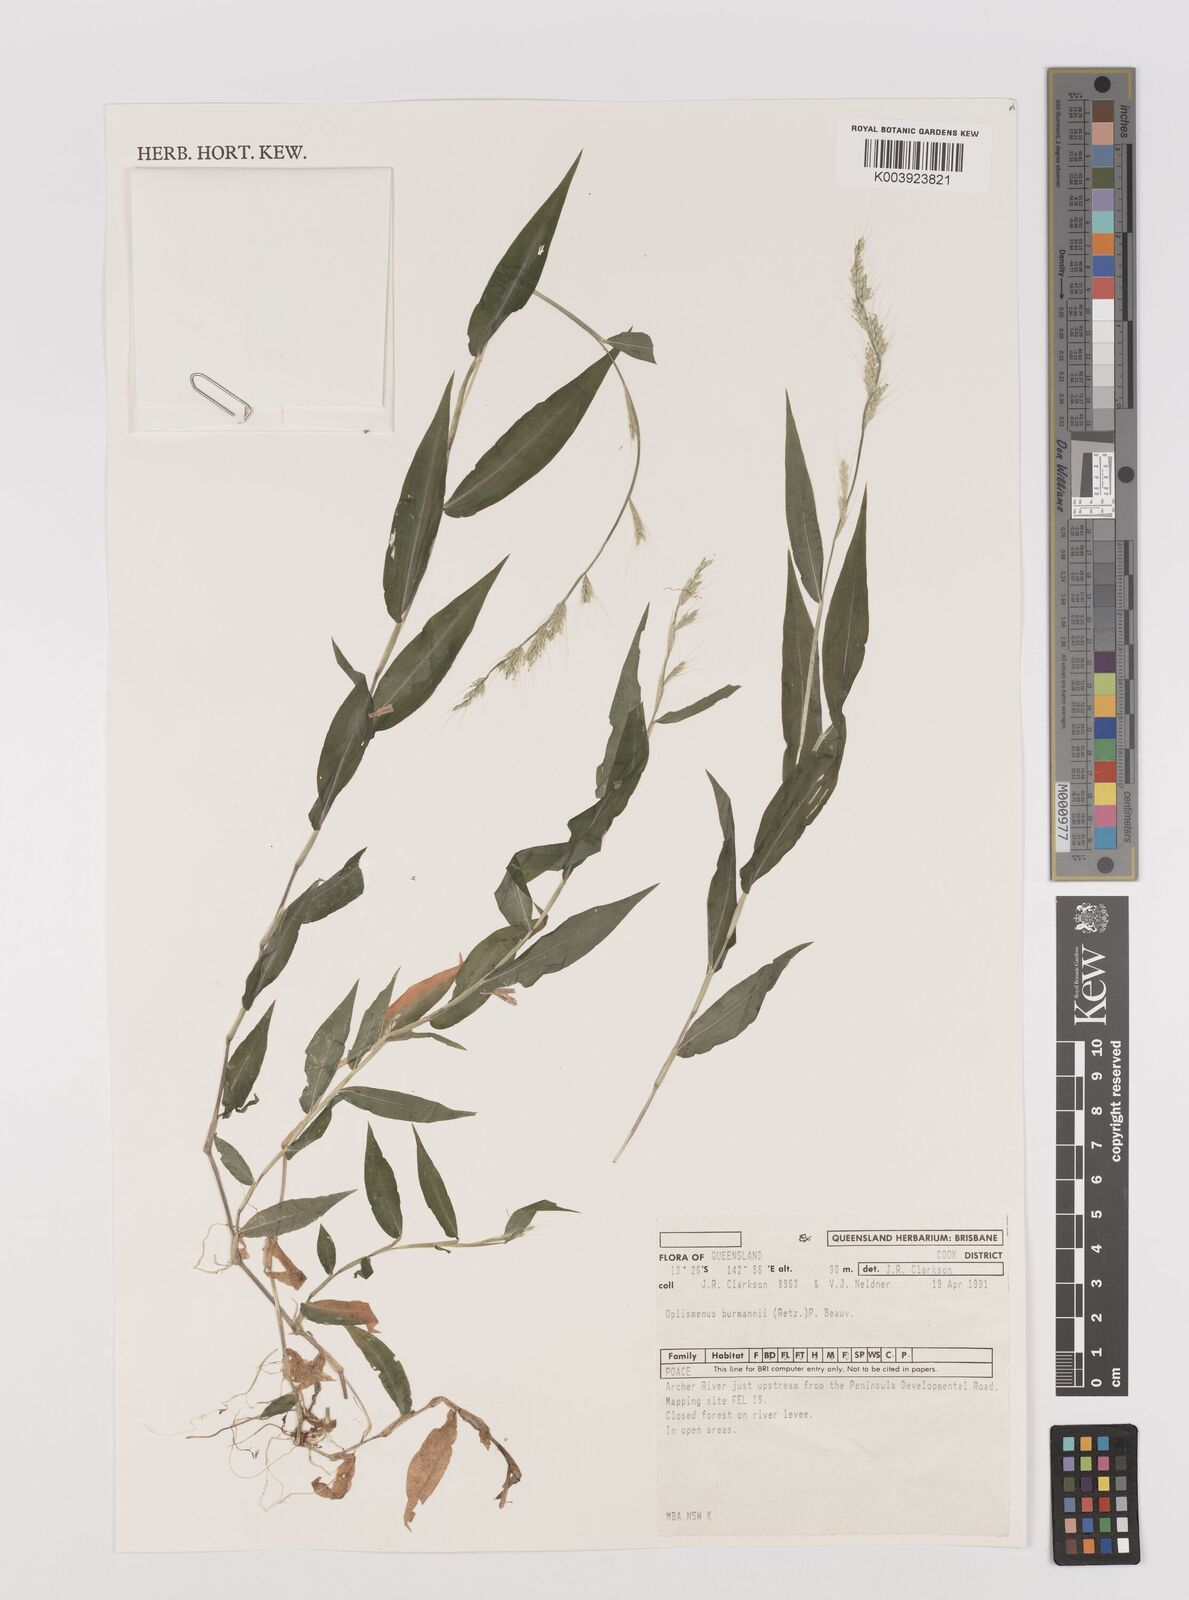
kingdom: Plantae
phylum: Tracheophyta
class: Liliopsida
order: Poales
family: Poaceae
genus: Oplismenus
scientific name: Oplismenus burmanni
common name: Burmann's basketgrass
